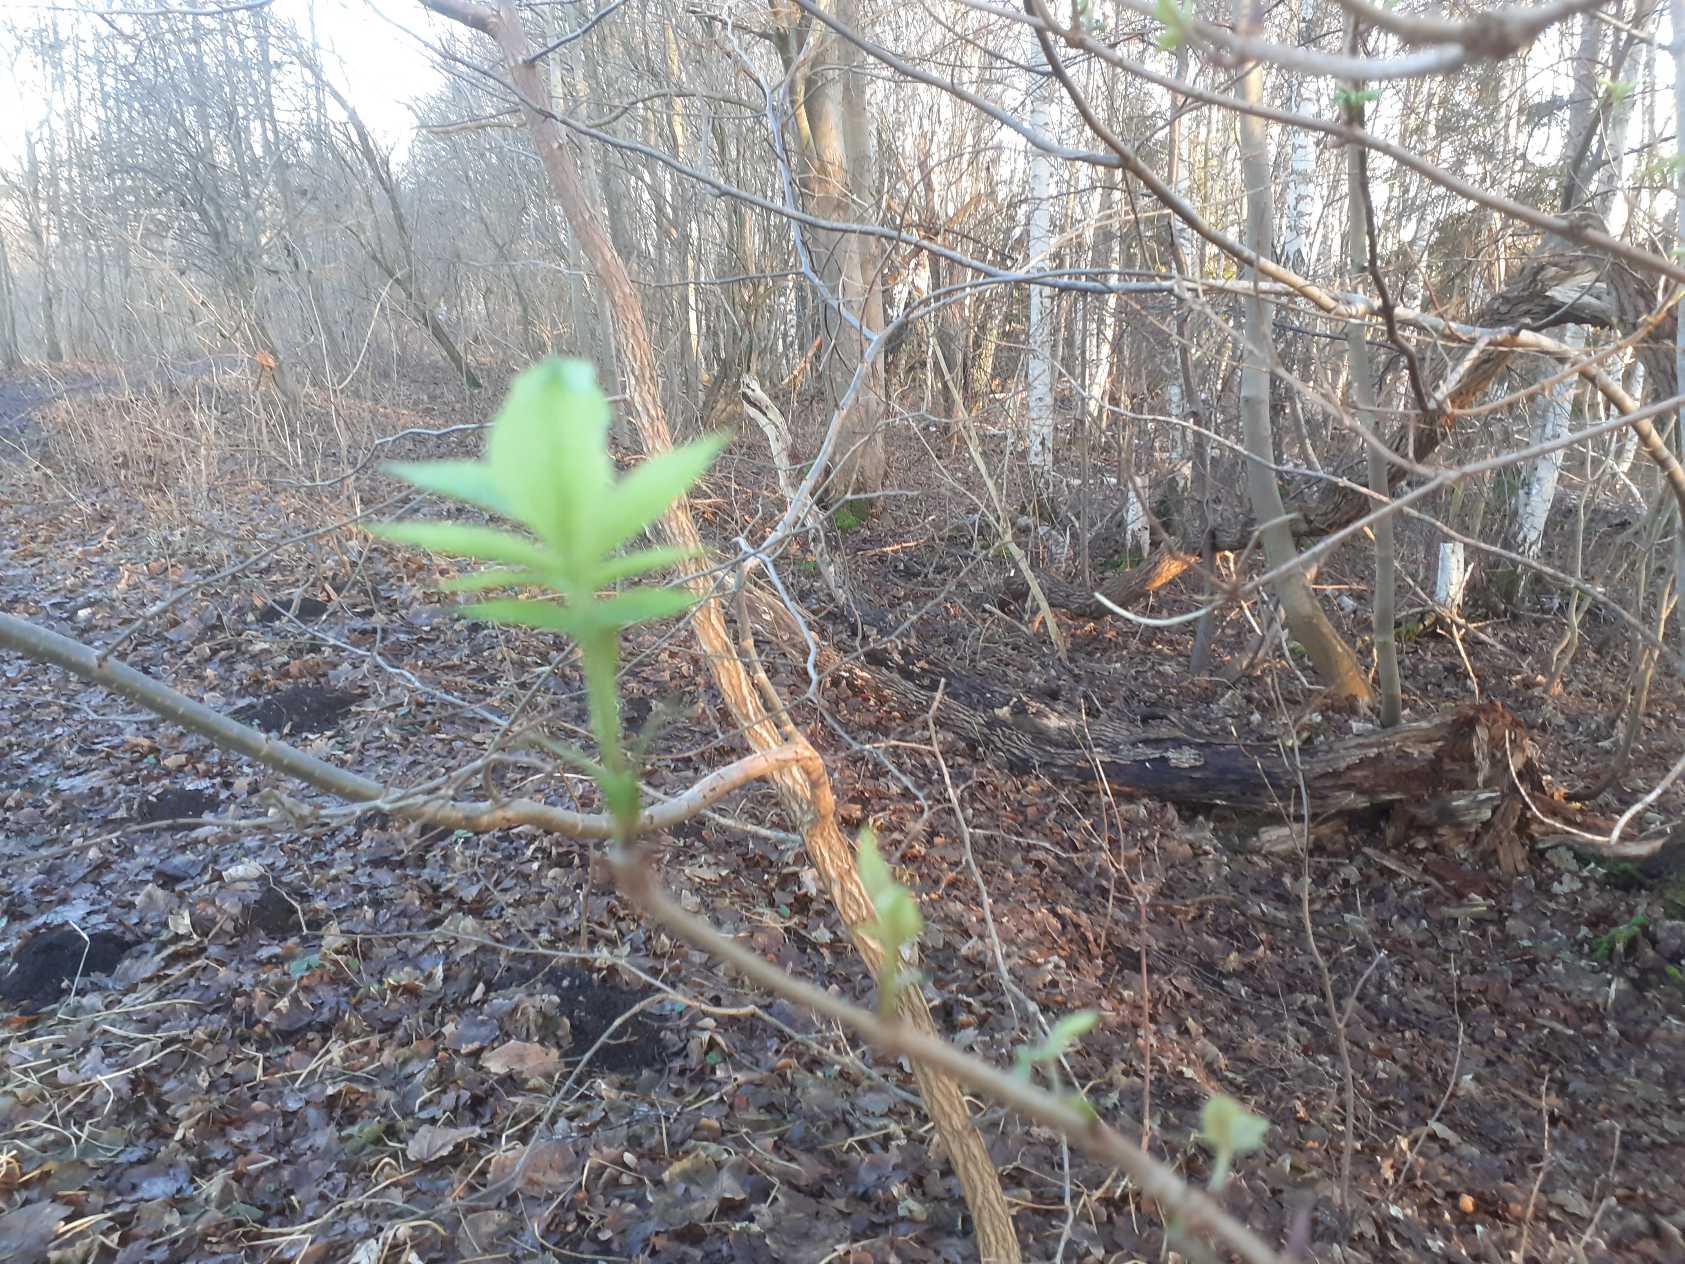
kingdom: Plantae
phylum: Tracheophyta
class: Magnoliopsida
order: Dipsacales
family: Viburnaceae
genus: Sambucus
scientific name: Sambucus nigra
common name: Almindelig hyld
